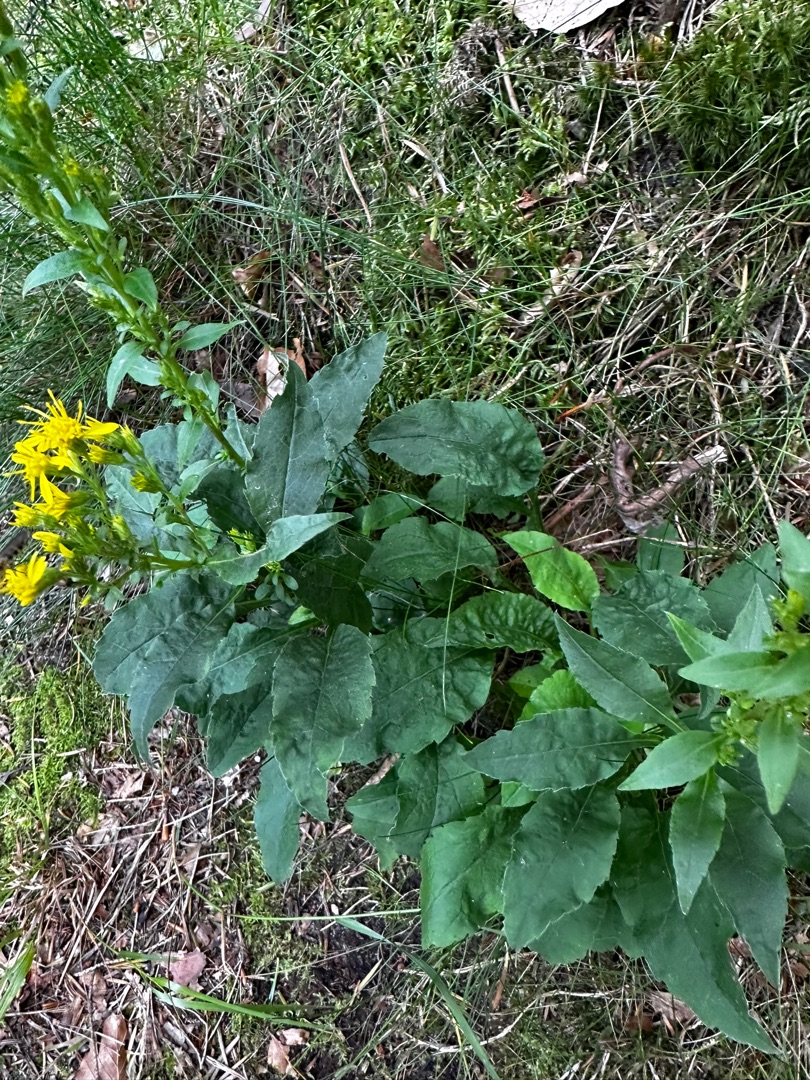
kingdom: Plantae
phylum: Tracheophyta
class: Magnoliopsida
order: Asterales
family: Asteraceae
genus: Solidago
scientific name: Solidago virgaurea
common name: Almindelig gyldenris
